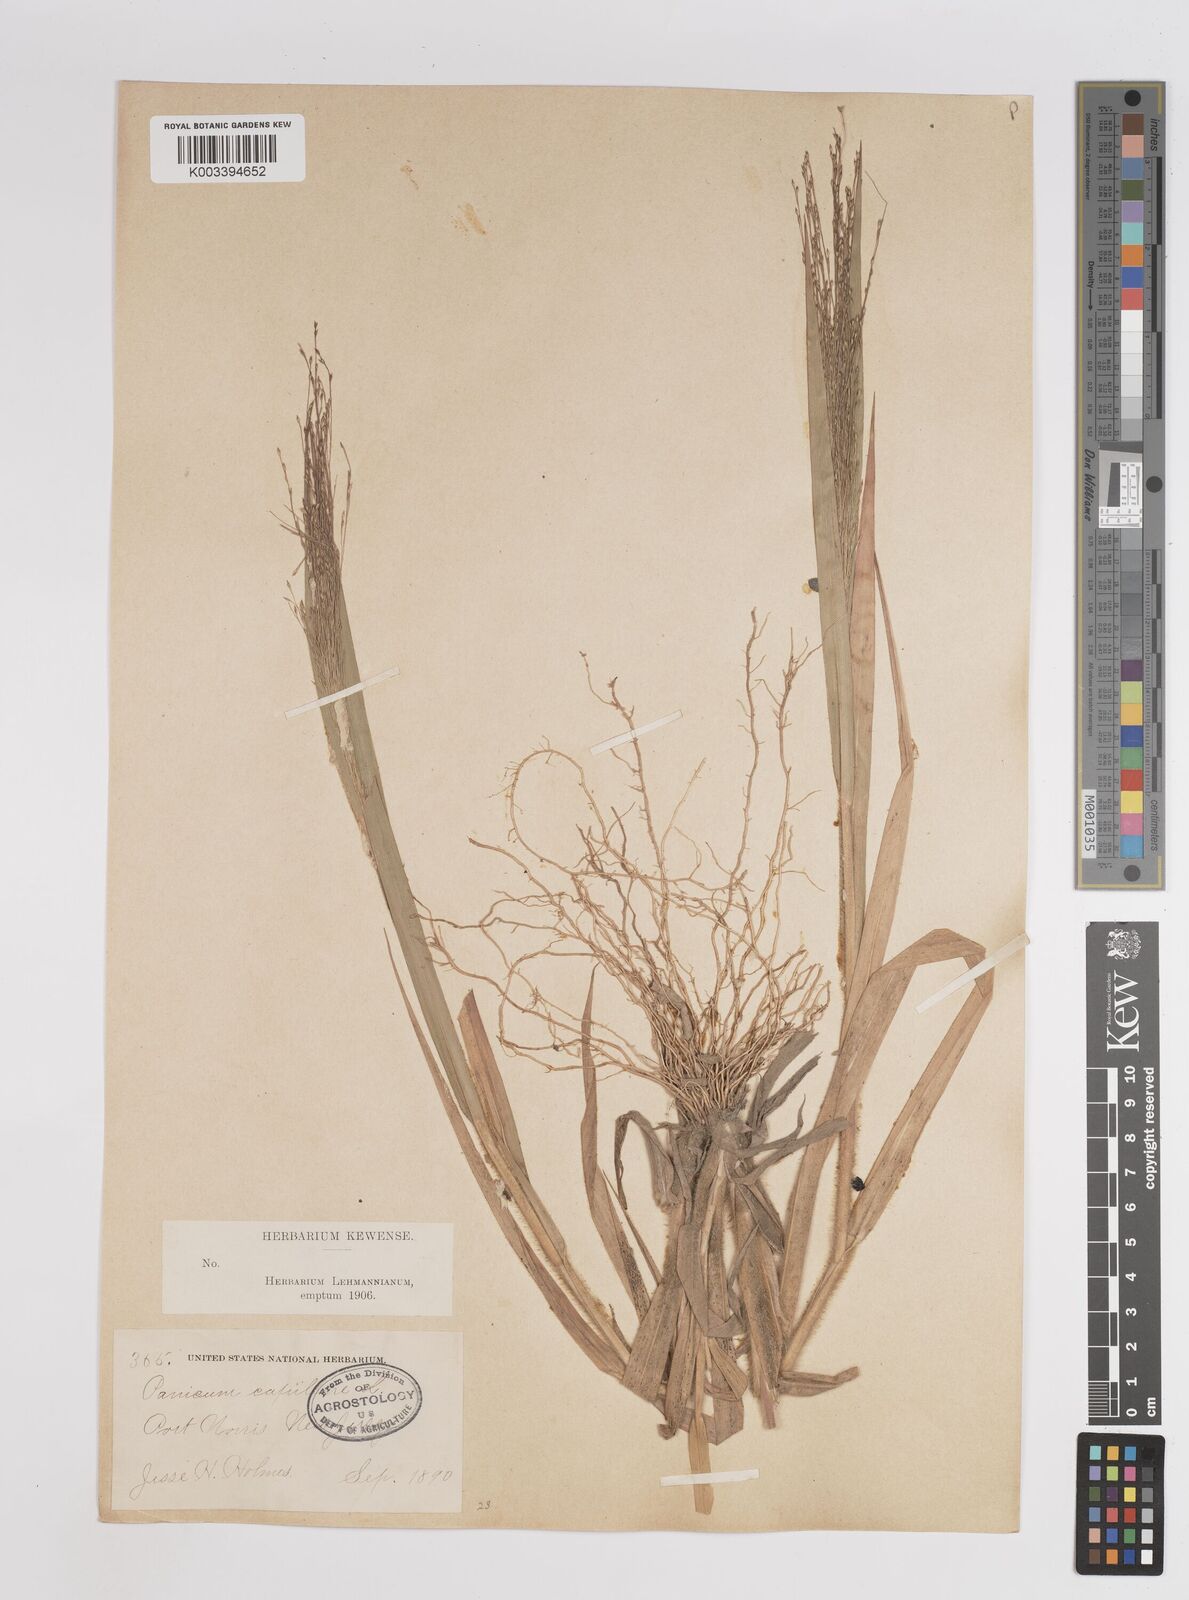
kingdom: Plantae
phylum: Tracheophyta
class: Liliopsida
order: Poales
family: Poaceae
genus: Panicum
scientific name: Panicum capillare
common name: Witch-grass
